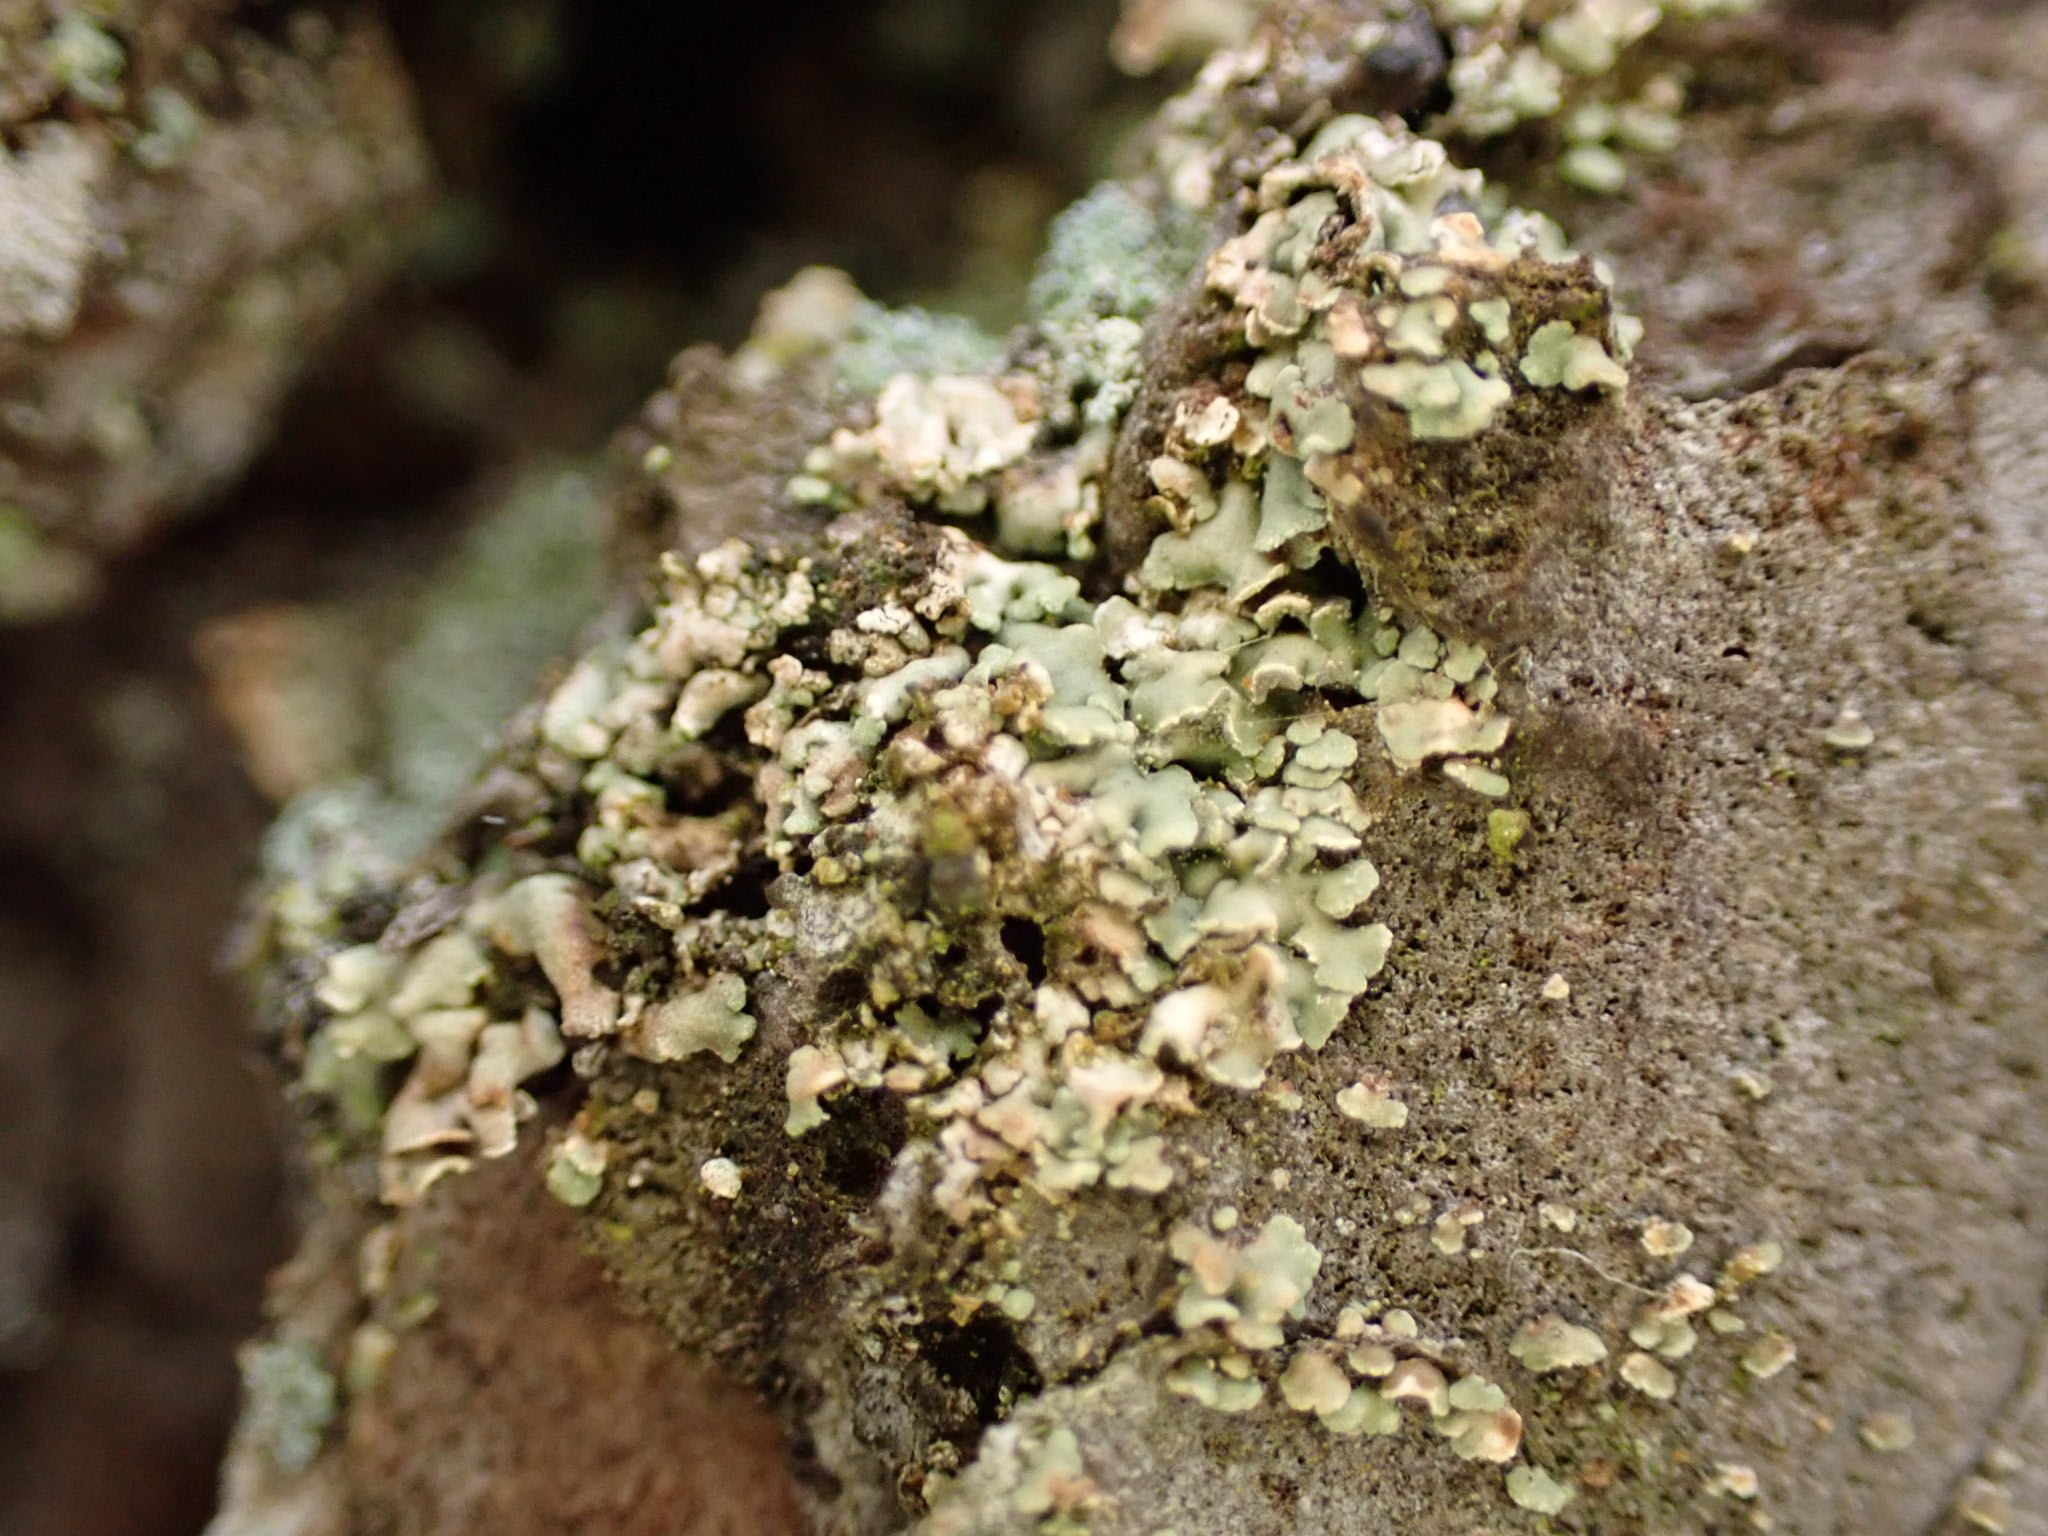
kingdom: Fungi
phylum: Ascomycota
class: Lecanoromycetes
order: Umbilicariales
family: Ophioparmaceae
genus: Hypocenomyce
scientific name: Hypocenomyce scalaris
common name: småskællet muslinglav
